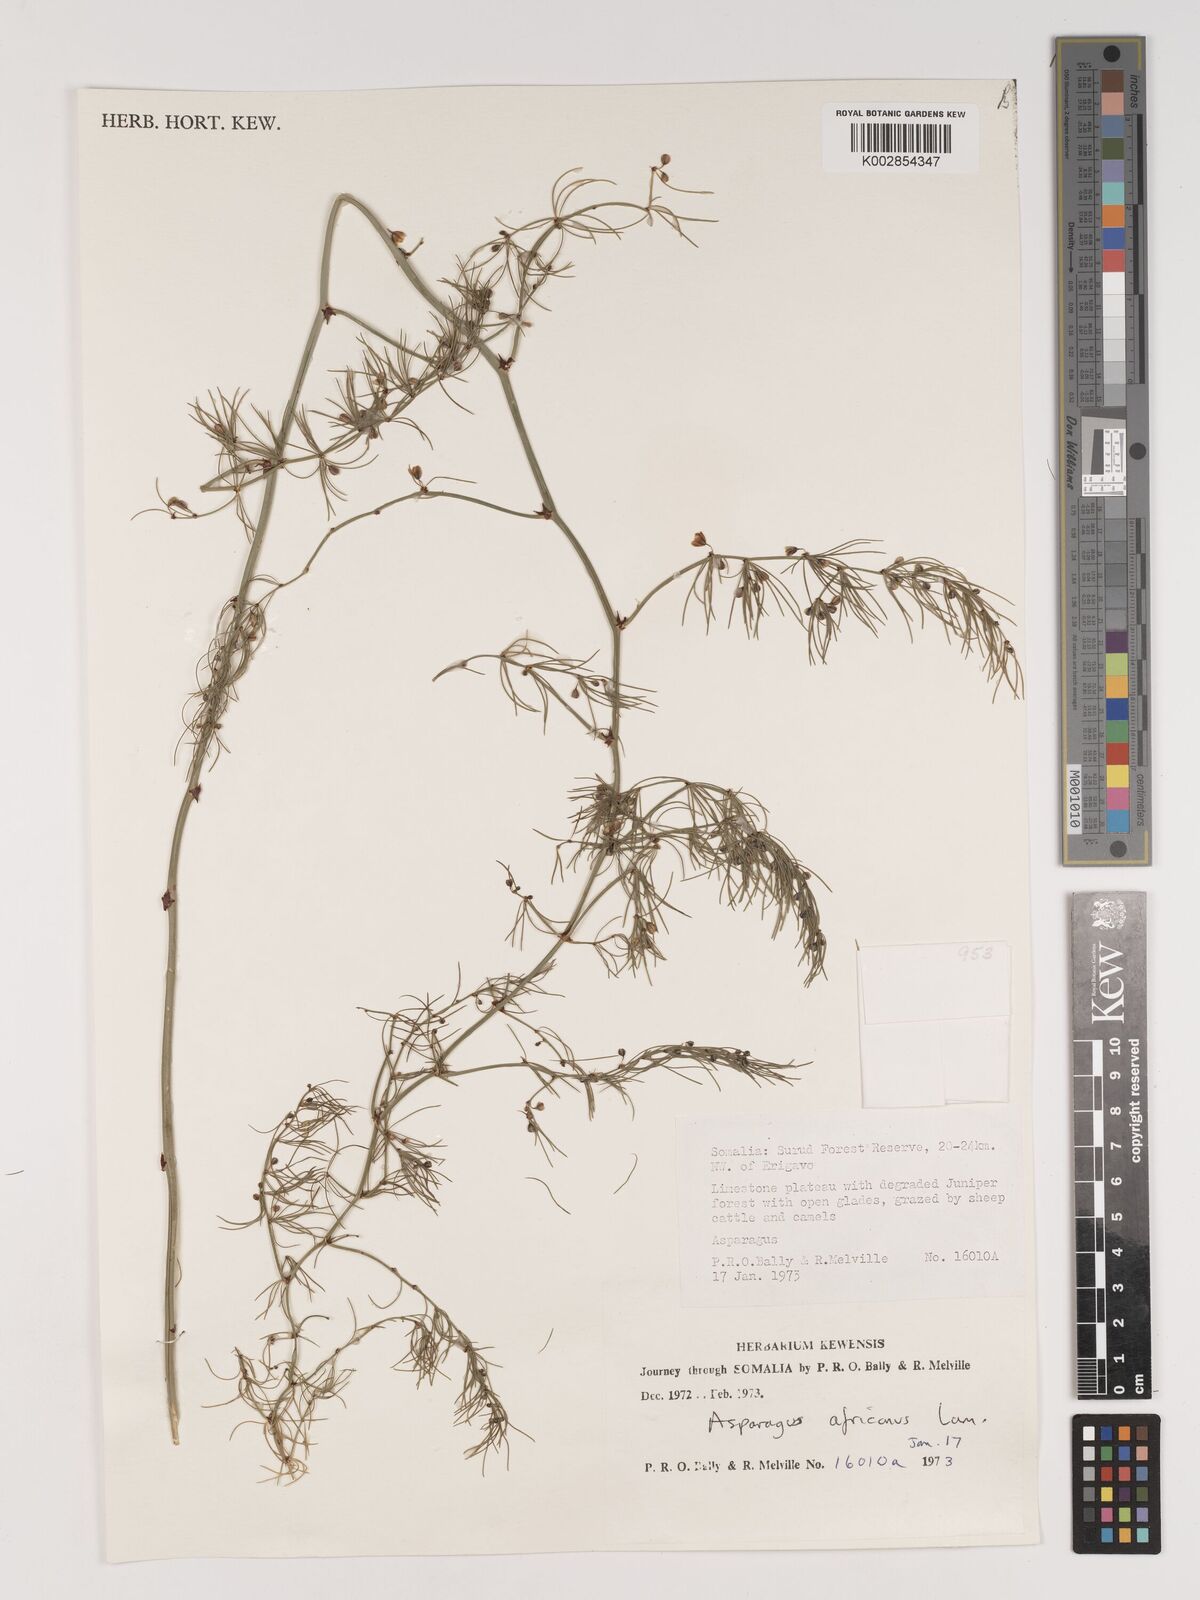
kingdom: Plantae
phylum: Tracheophyta
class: Liliopsida
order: Asparagales
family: Asparagaceae
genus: Asparagus
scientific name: Asparagus africanus
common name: Asparagus-fern
